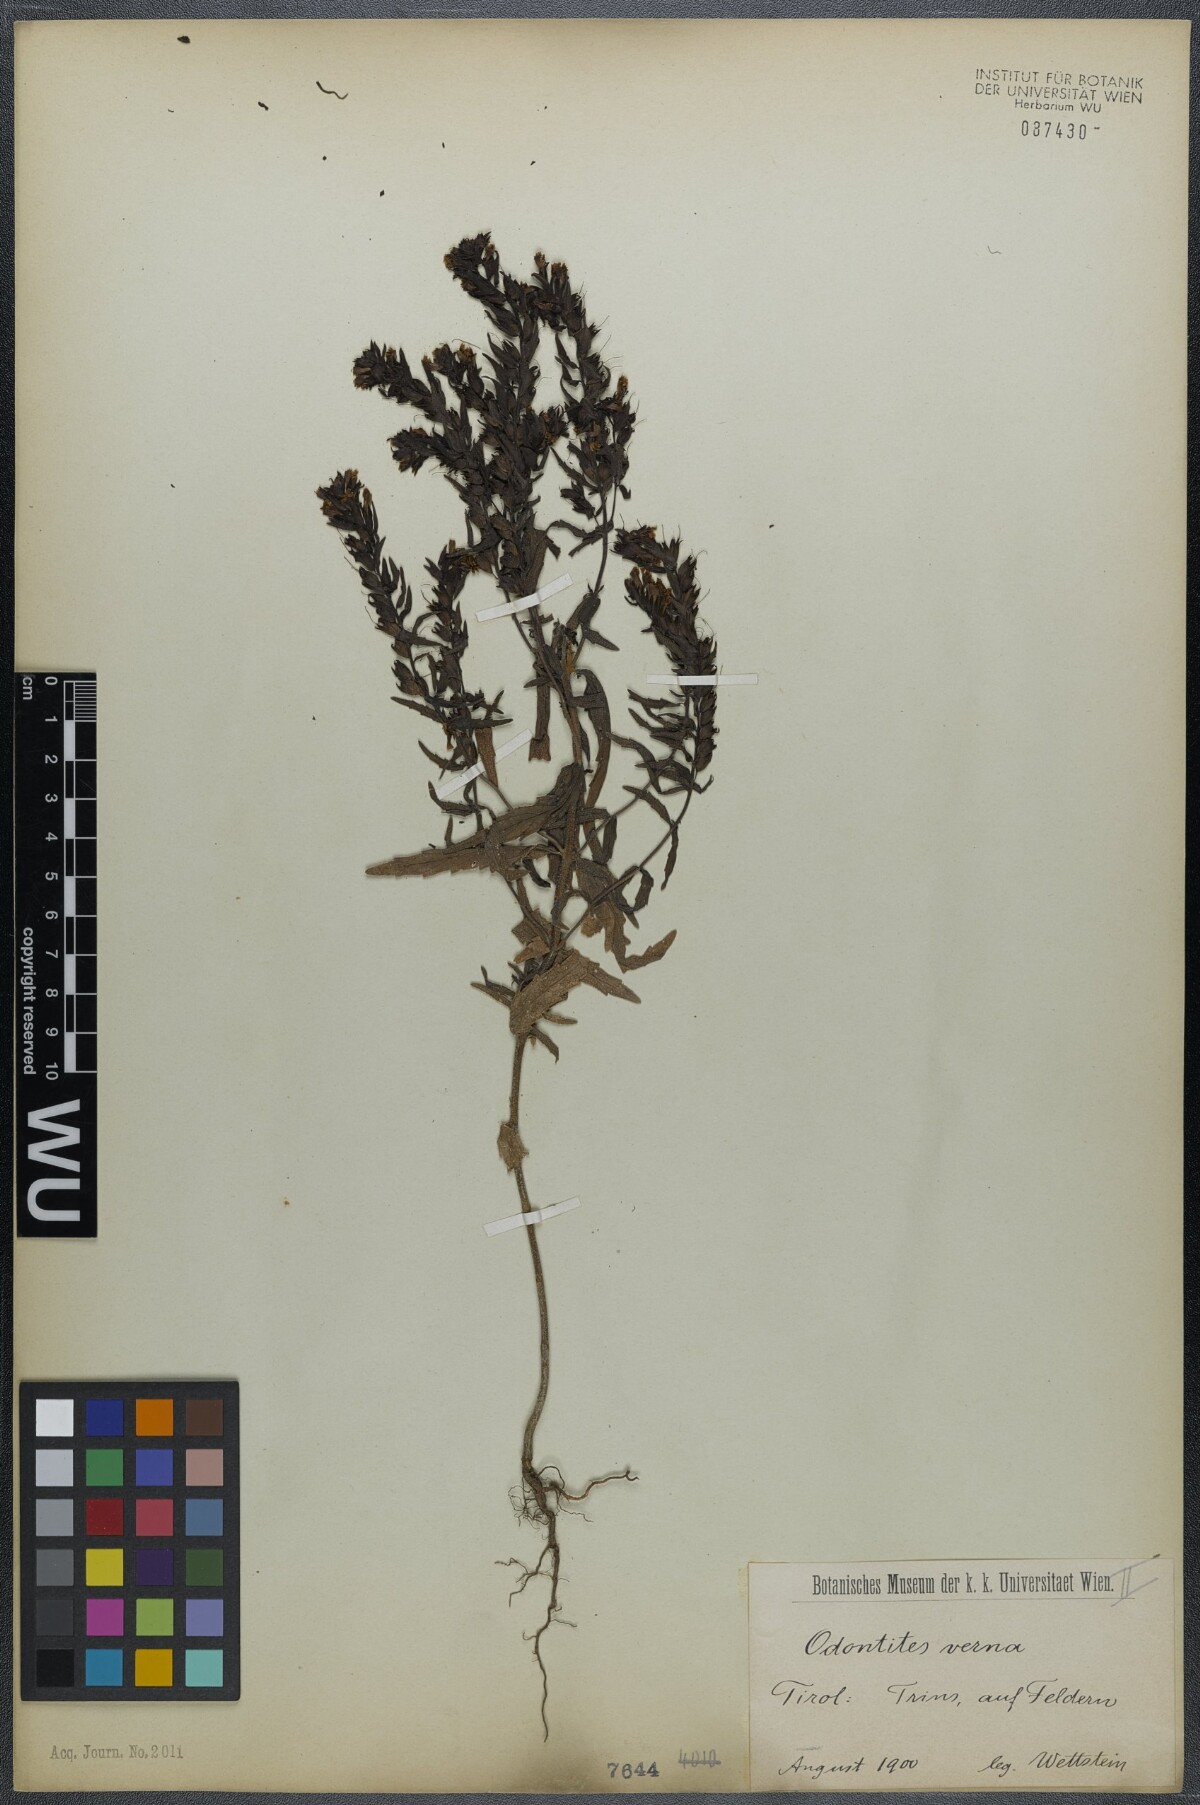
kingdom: Plantae
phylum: Tracheophyta
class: Magnoliopsida
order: Lamiales
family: Orobanchaceae
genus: Odontites
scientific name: Odontites vernus
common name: Red bartsia
